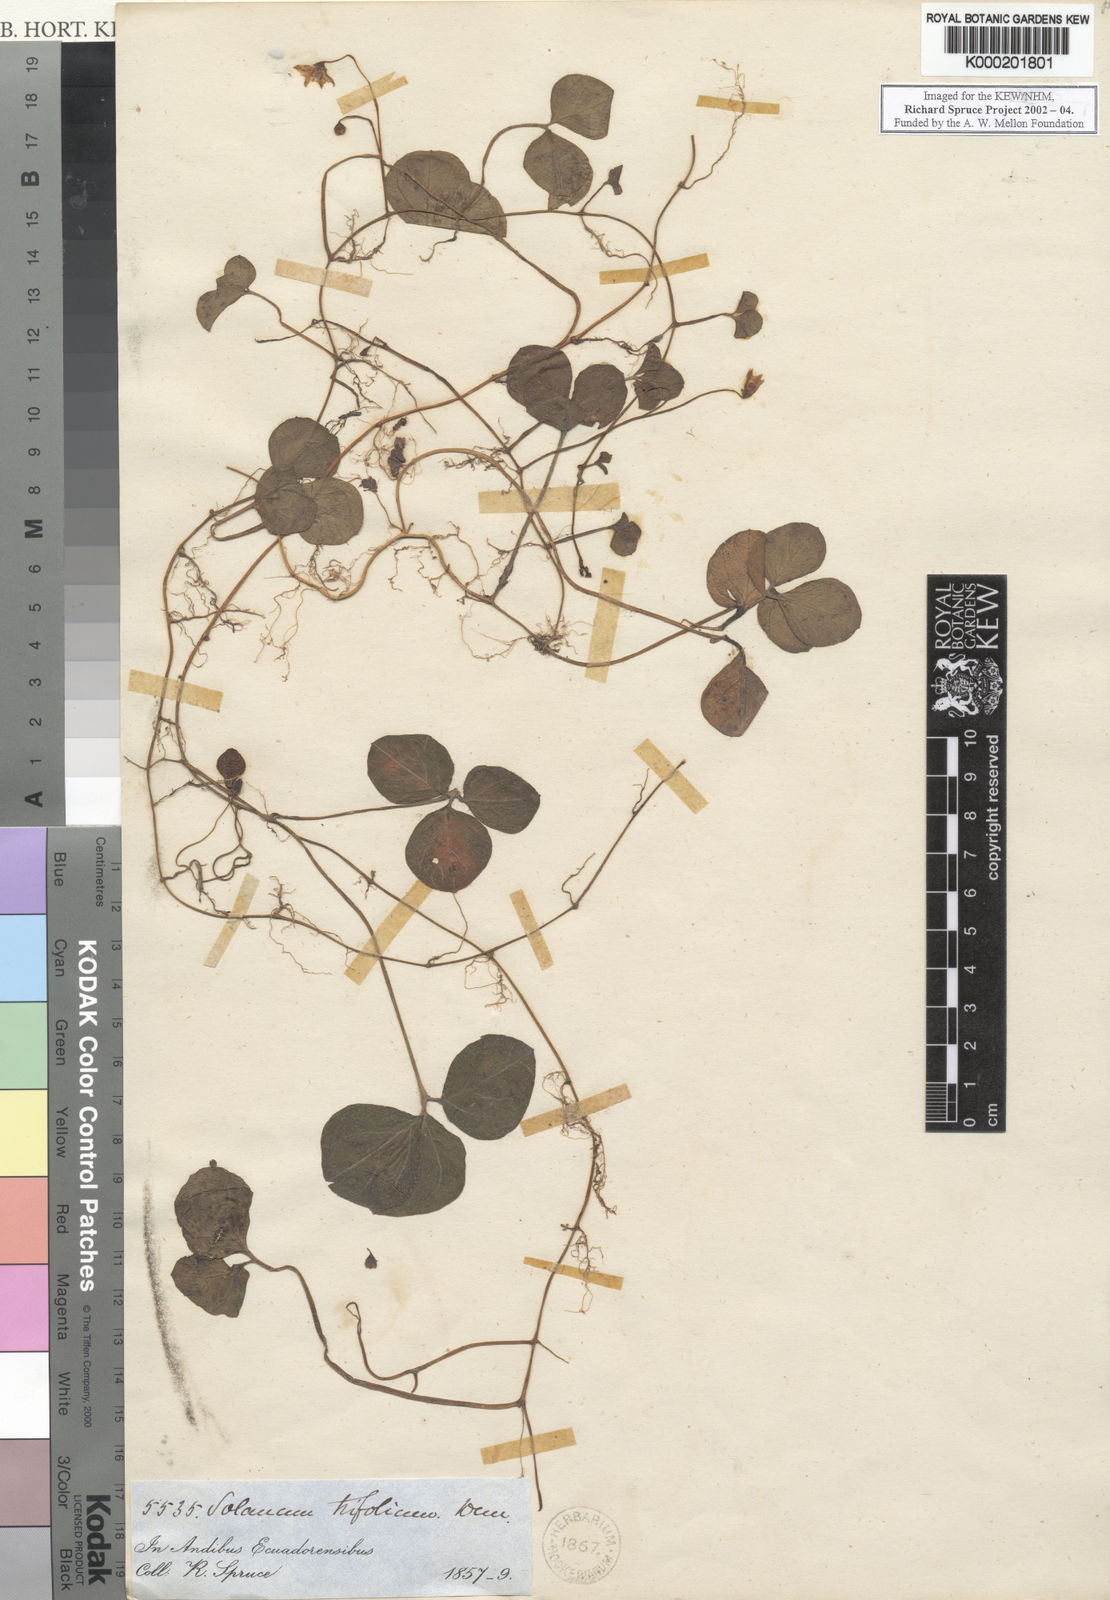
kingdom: Plantae
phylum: Tracheophyta
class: Magnoliopsida
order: Solanales
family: Solanaceae
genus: Solanum
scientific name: Solanum trifolium
